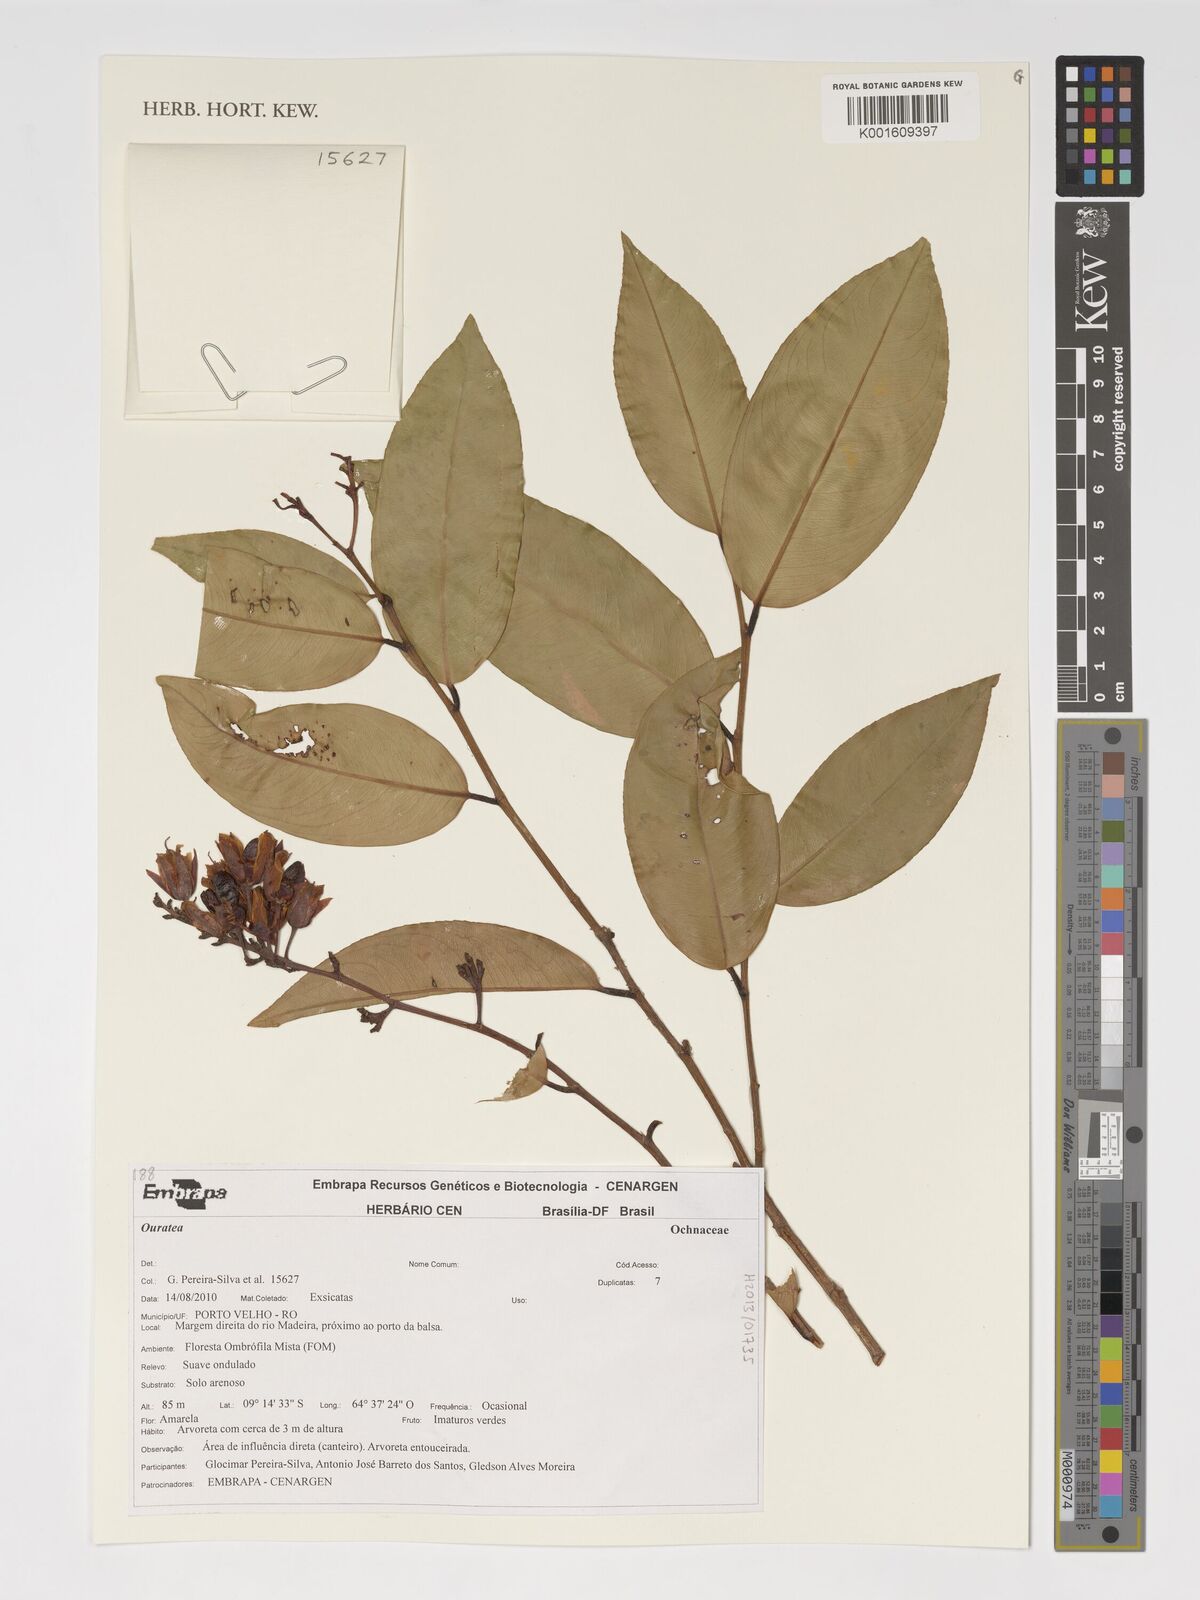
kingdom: Plantae
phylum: Tracheophyta
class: Magnoliopsida
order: Malpighiales
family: Ochnaceae
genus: Ouratea
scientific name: Ouratea
